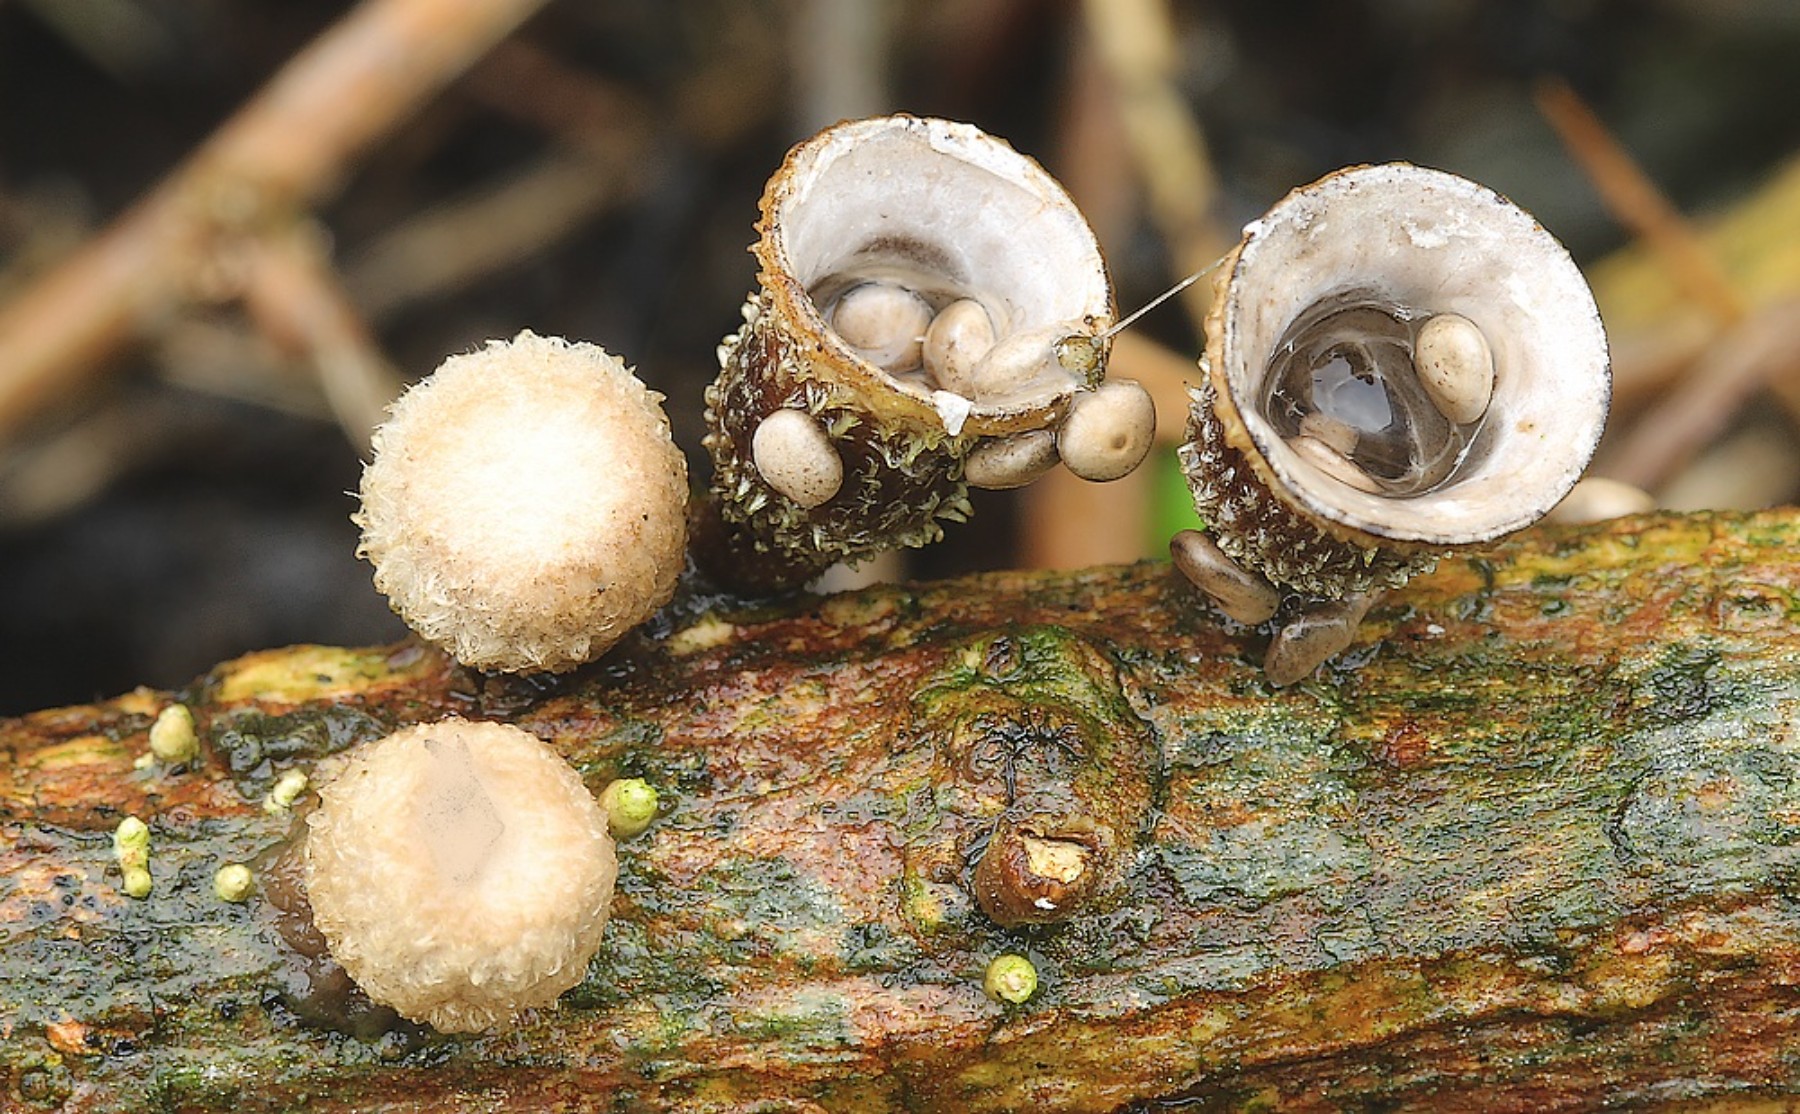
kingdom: Fungi
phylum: Basidiomycota
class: Agaricomycetes
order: Agaricales
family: Agaricaceae
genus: Cyathus
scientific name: Cyathus olla
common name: klokke-redesvamp
